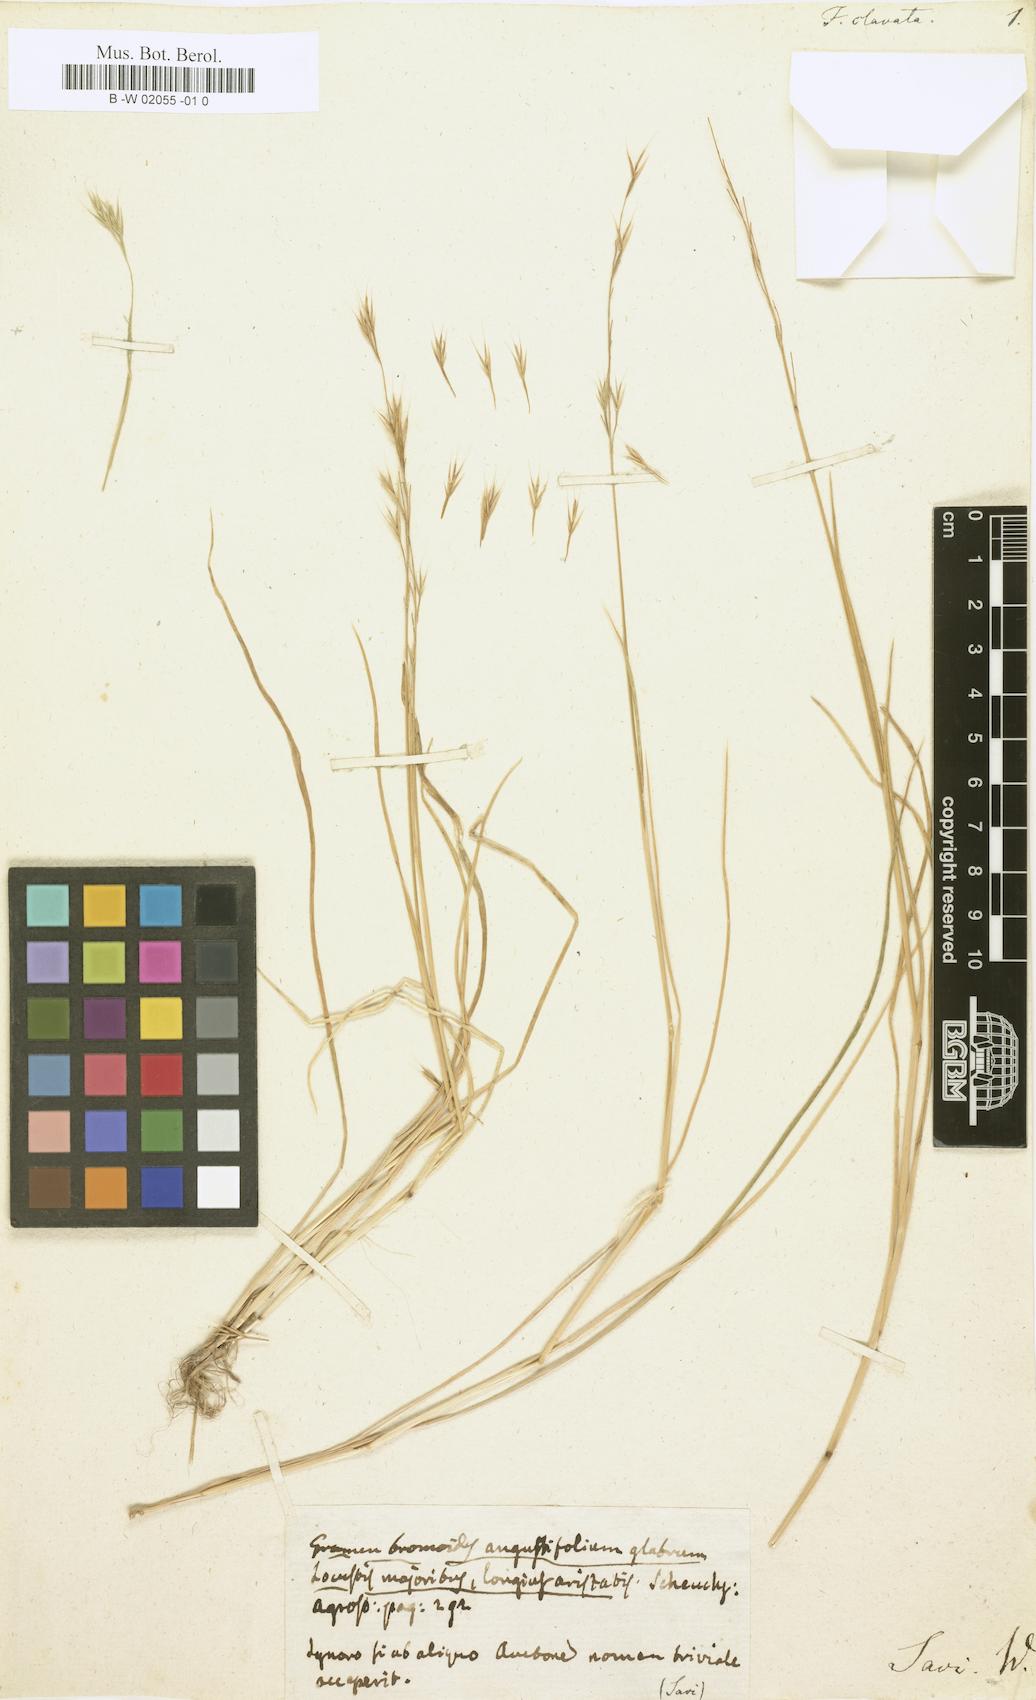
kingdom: Plantae
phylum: Tracheophyta
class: Liliopsida
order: Poales
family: Poaceae
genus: Vulpiella
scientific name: Vulpiella stipoides
